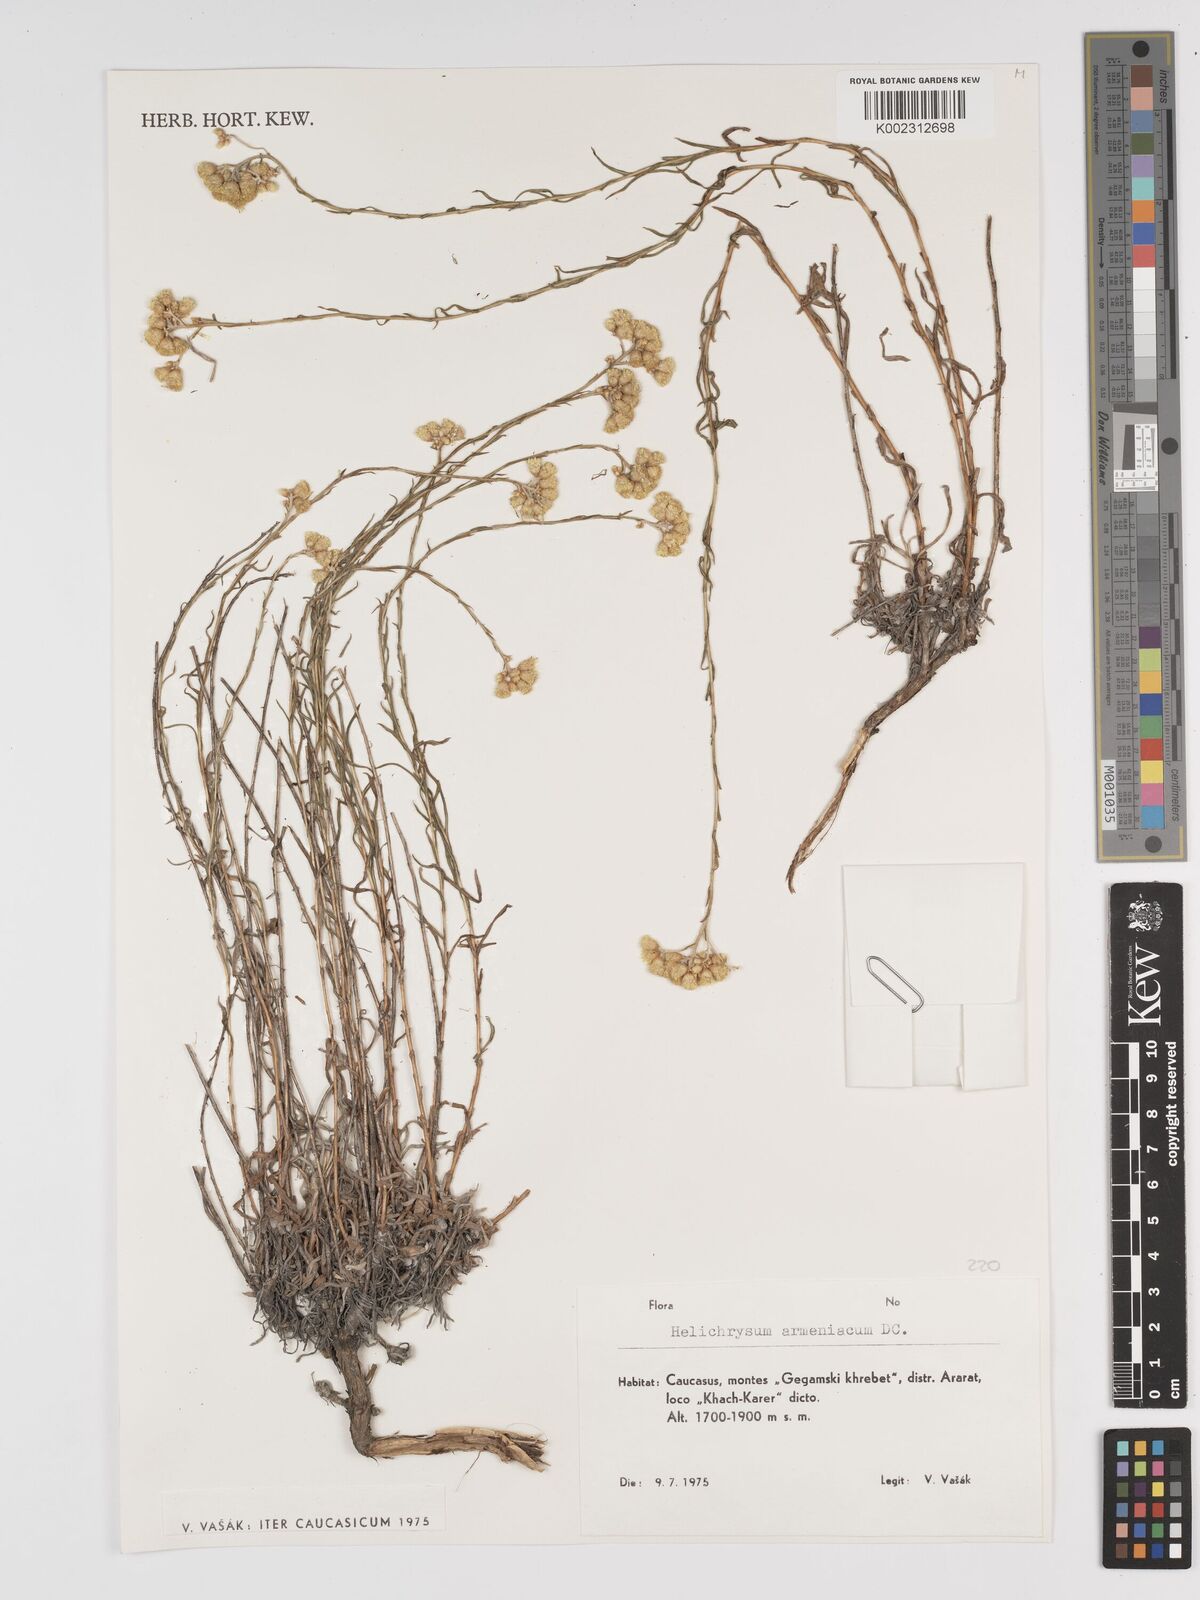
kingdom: Plantae
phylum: Tracheophyta
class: Magnoliopsida
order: Asterales
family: Asteraceae
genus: Helichrysum
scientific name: Helichrysum armenium
